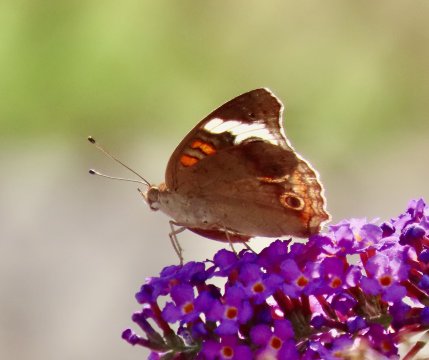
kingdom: Animalia
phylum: Arthropoda
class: Insecta
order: Lepidoptera
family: Nymphalidae
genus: Junonia
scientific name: Junonia coenia
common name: Common Buckeye
